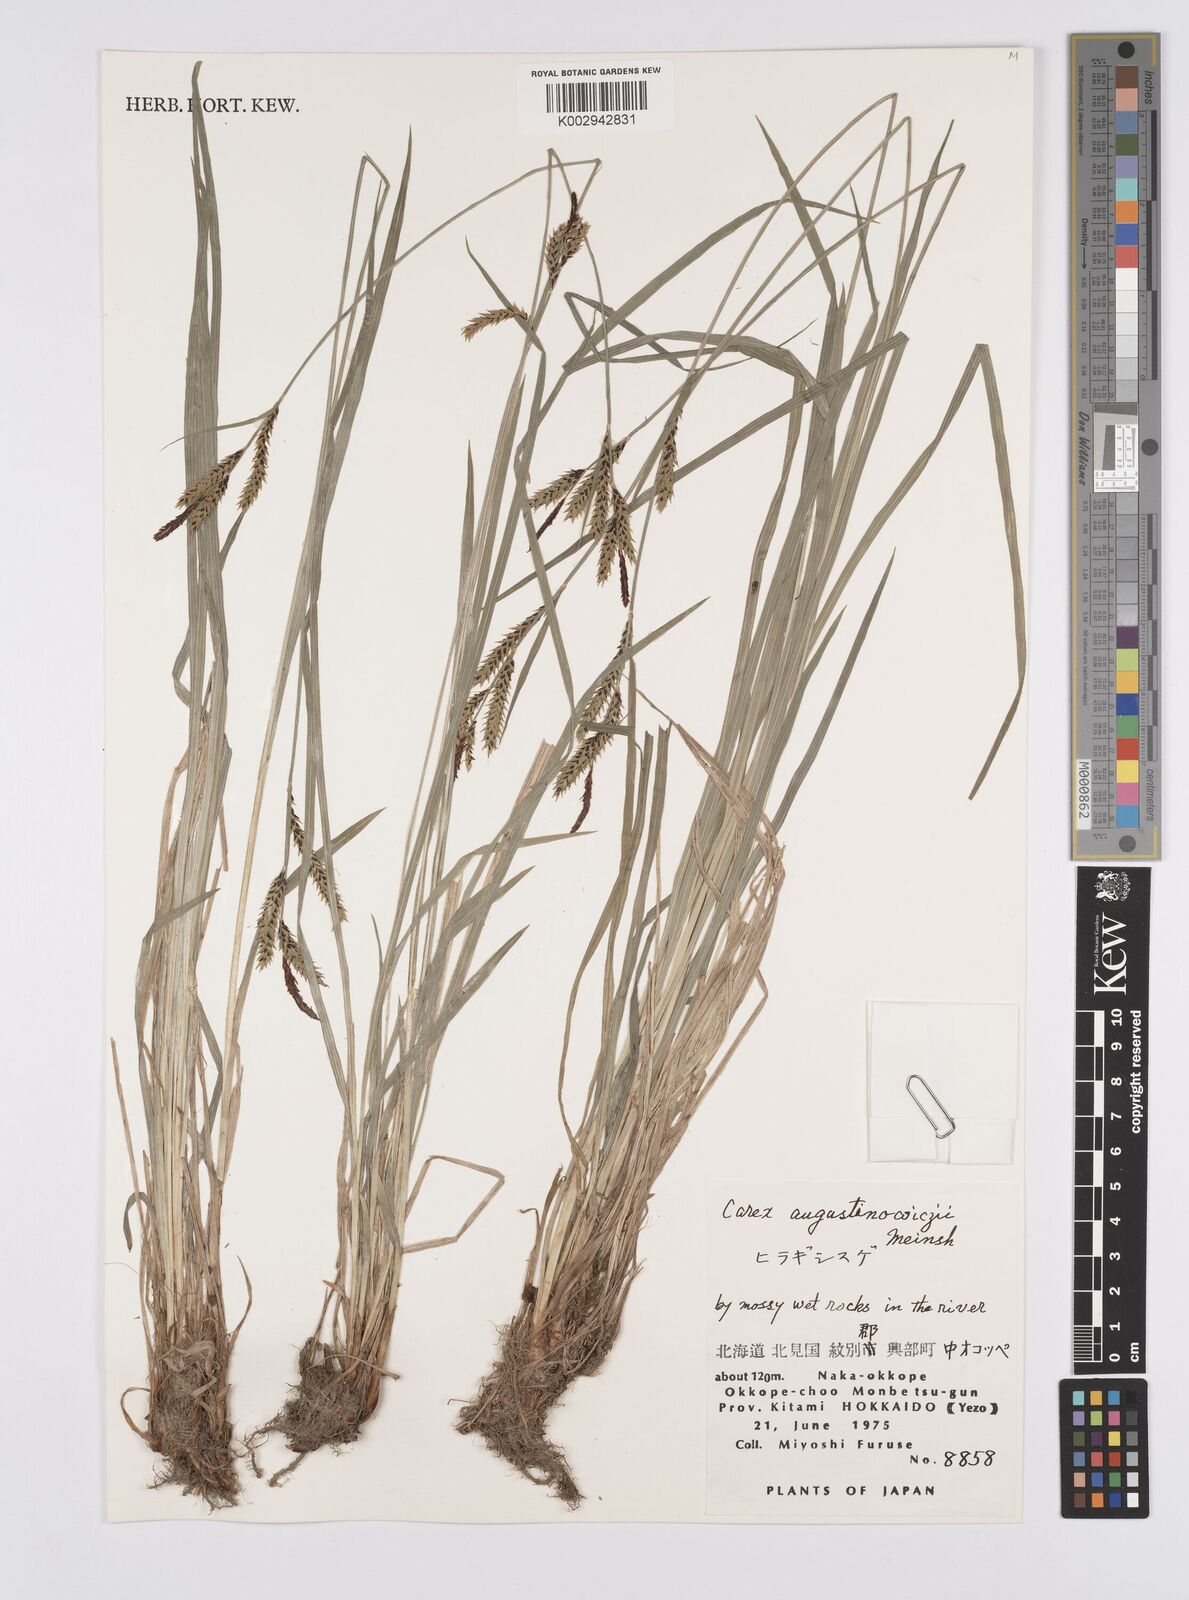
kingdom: Plantae
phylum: Tracheophyta
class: Liliopsida
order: Poales
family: Cyperaceae
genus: Carex
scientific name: Carex augustinowiczii
